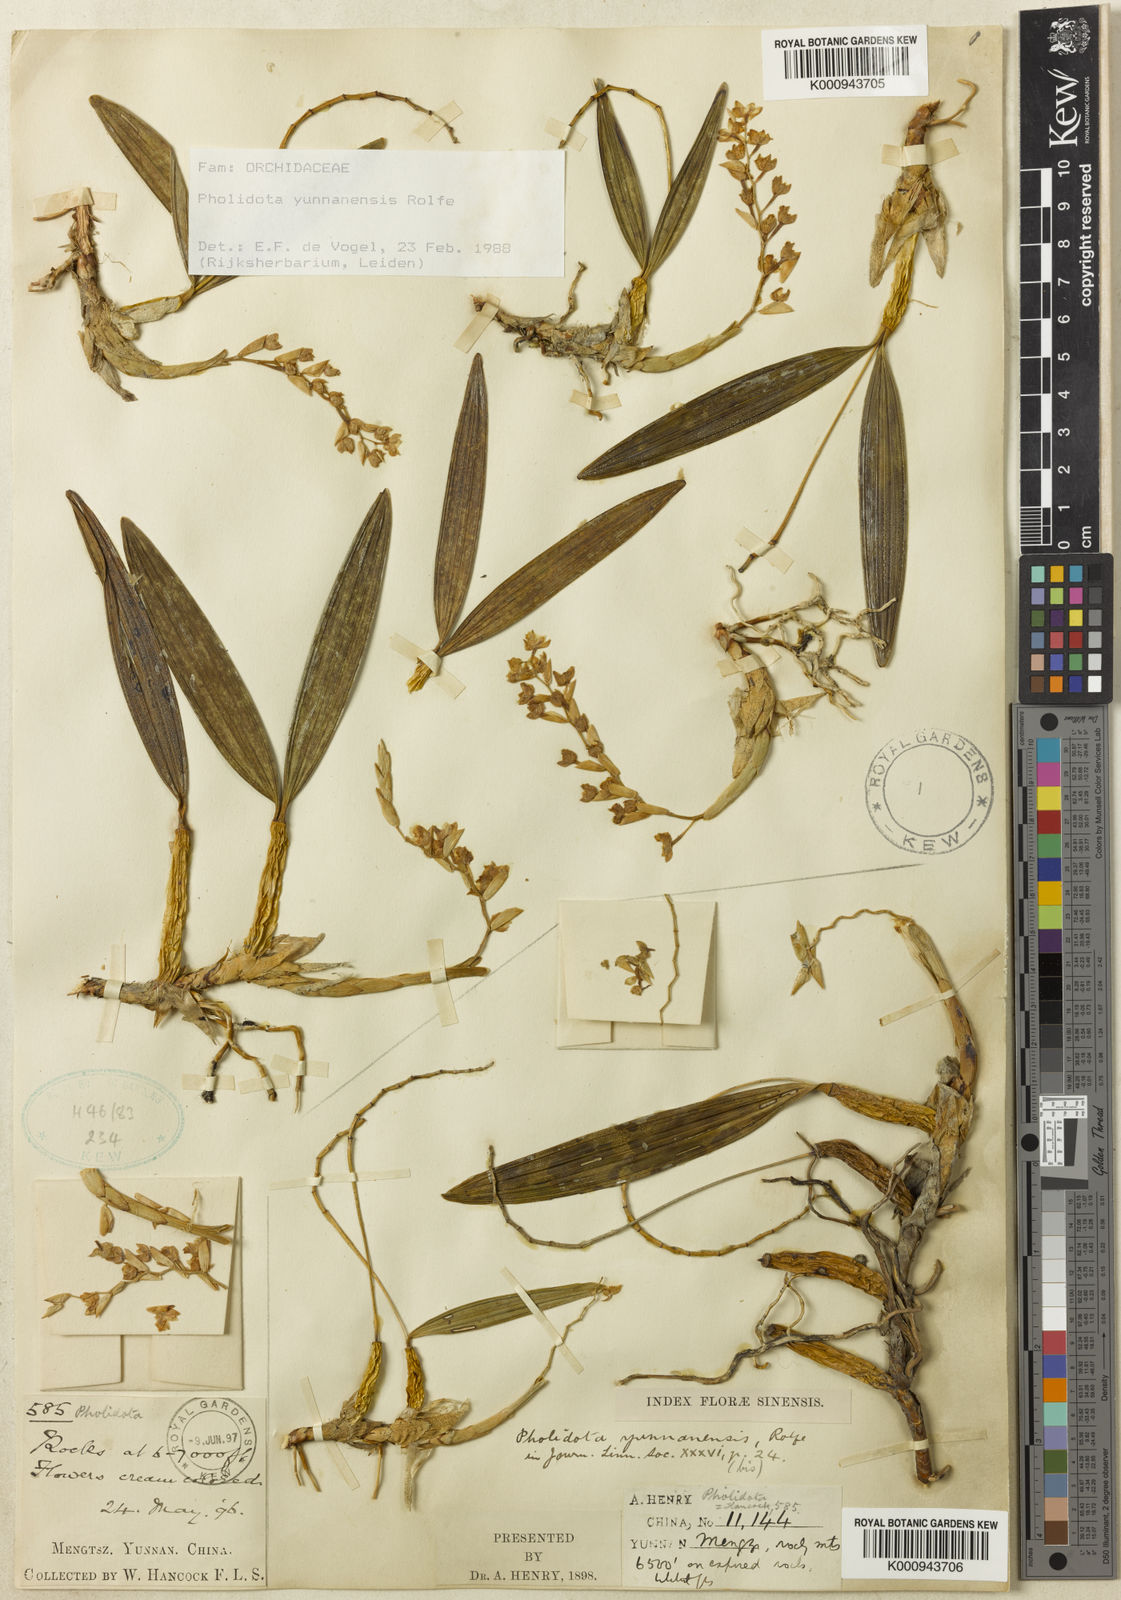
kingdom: Plantae
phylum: Tracheophyta
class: Liliopsida
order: Asparagales
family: Orchidaceae
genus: Coelogyne
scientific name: Coelogyne kouytcheensis
